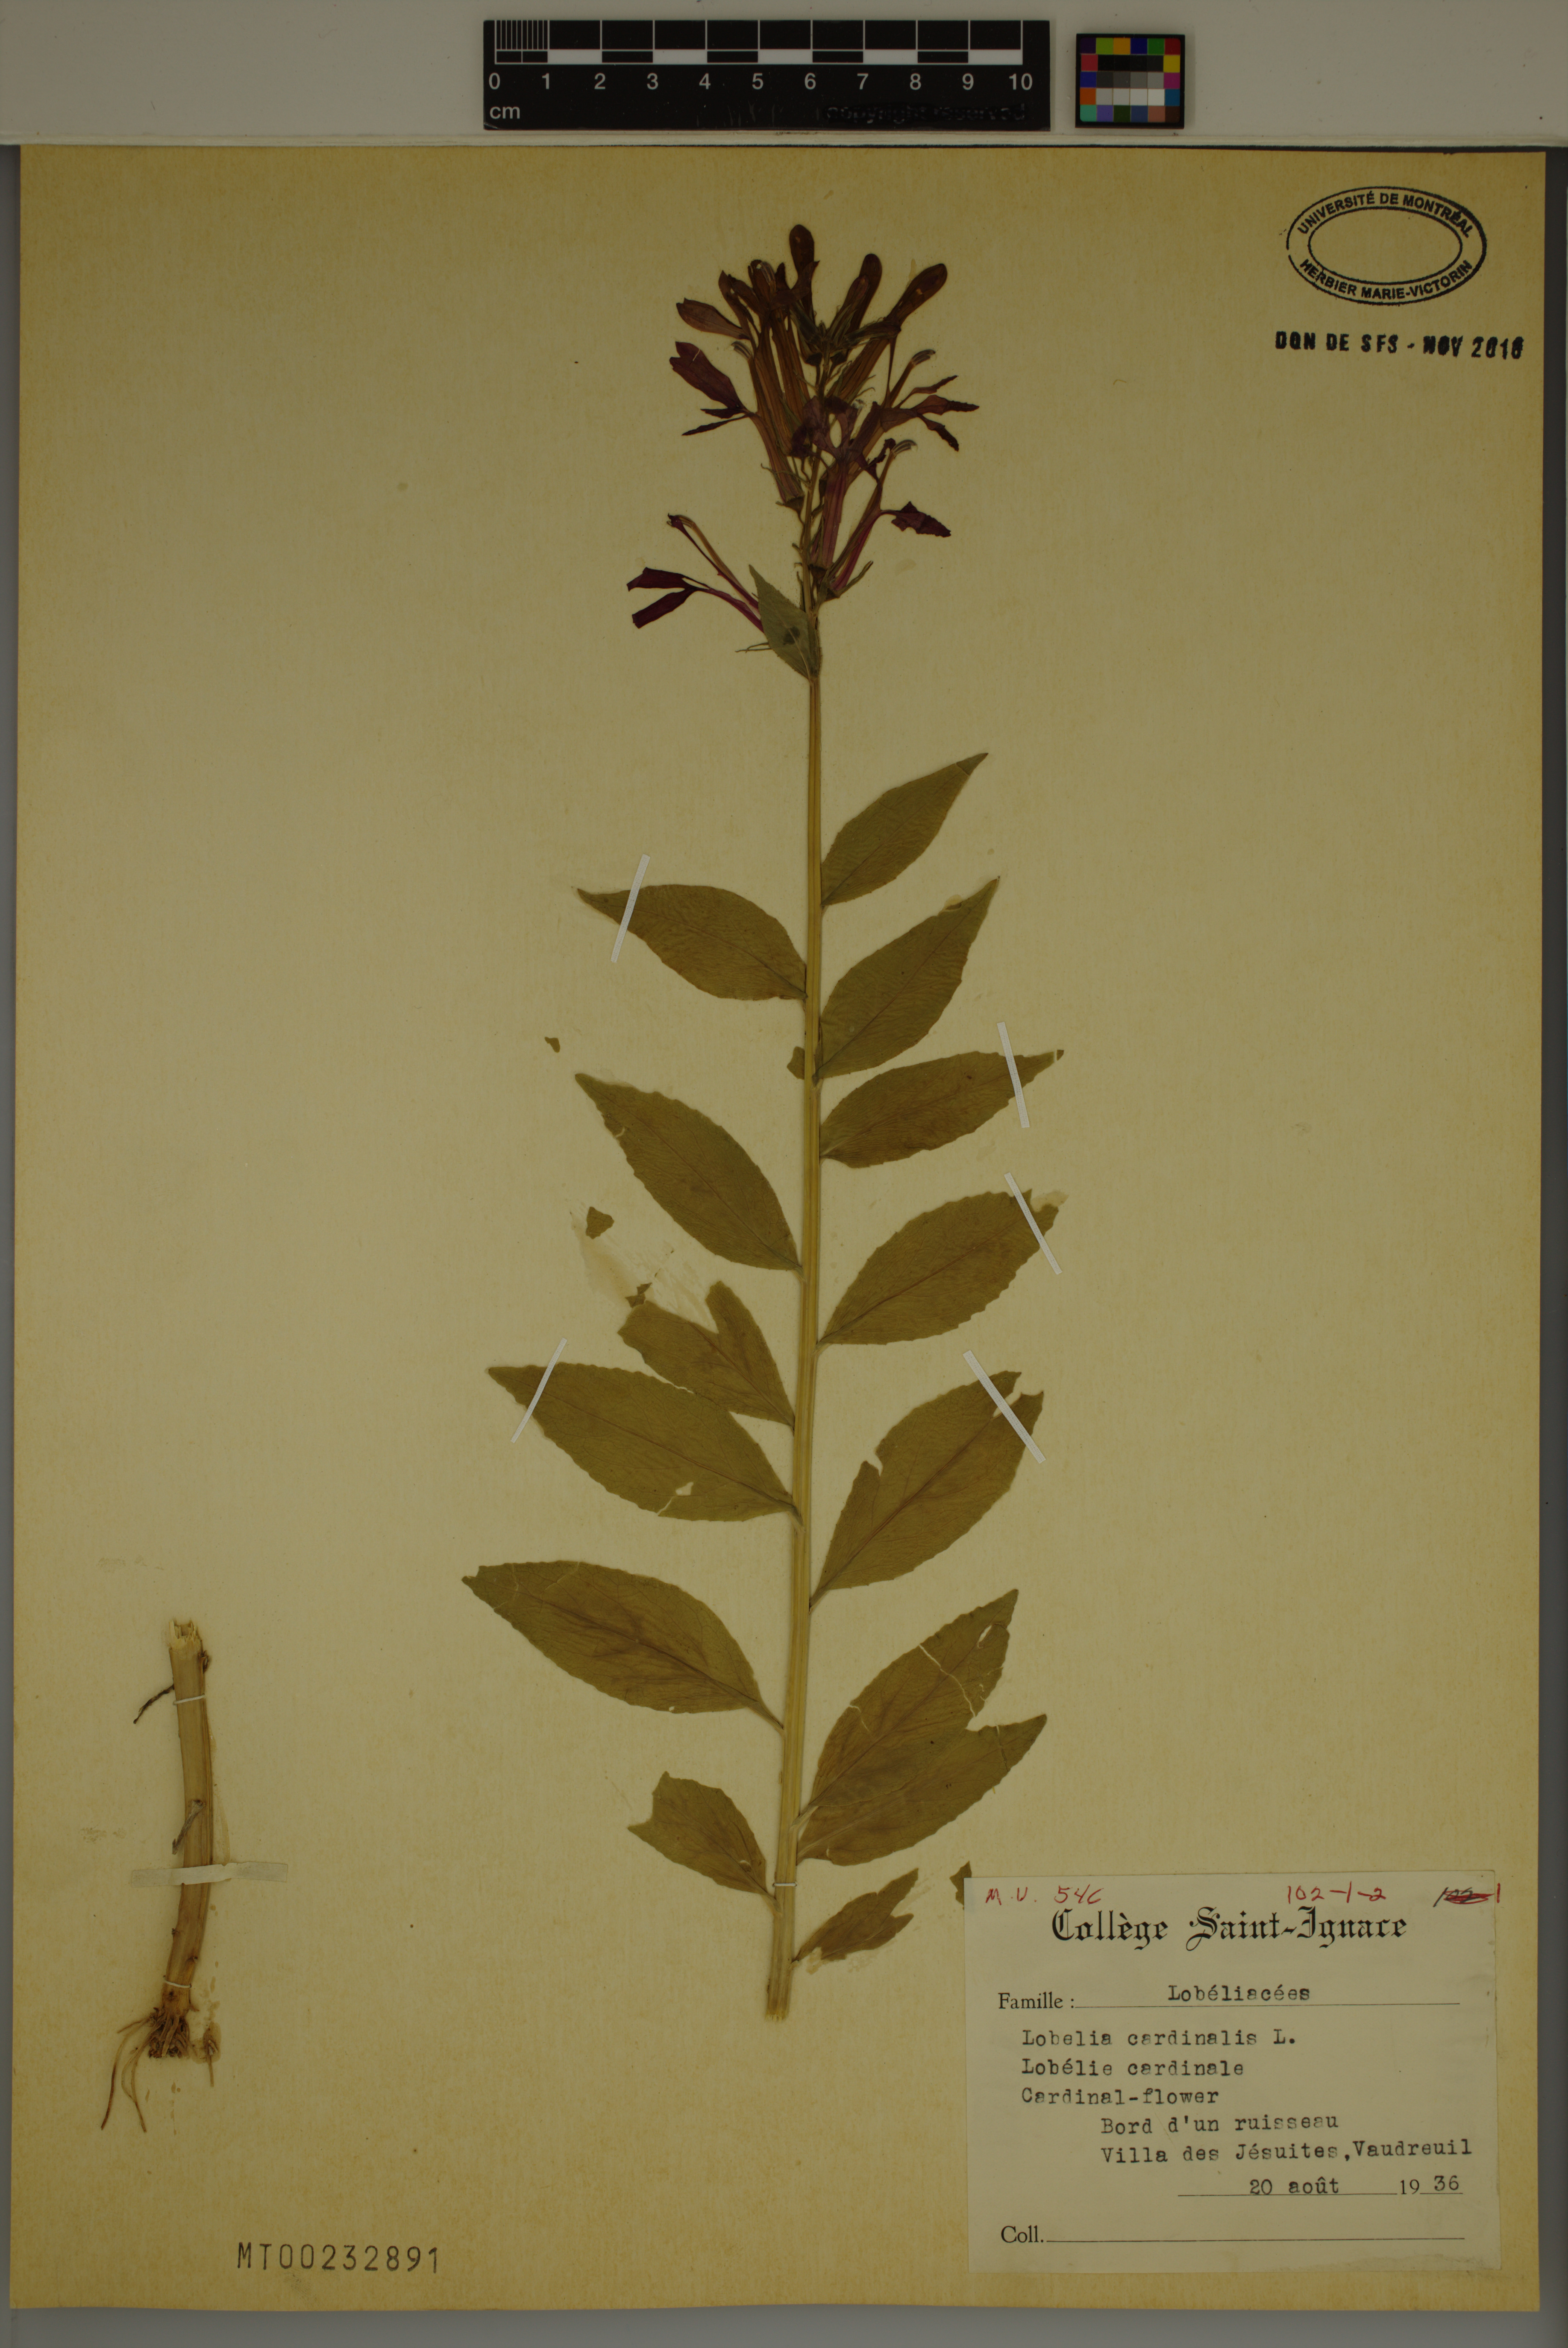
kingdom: Plantae
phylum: Tracheophyta
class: Magnoliopsida
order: Asterales
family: Campanulaceae
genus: Lobelia
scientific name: Lobelia cardinalis
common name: Cardinal flower
